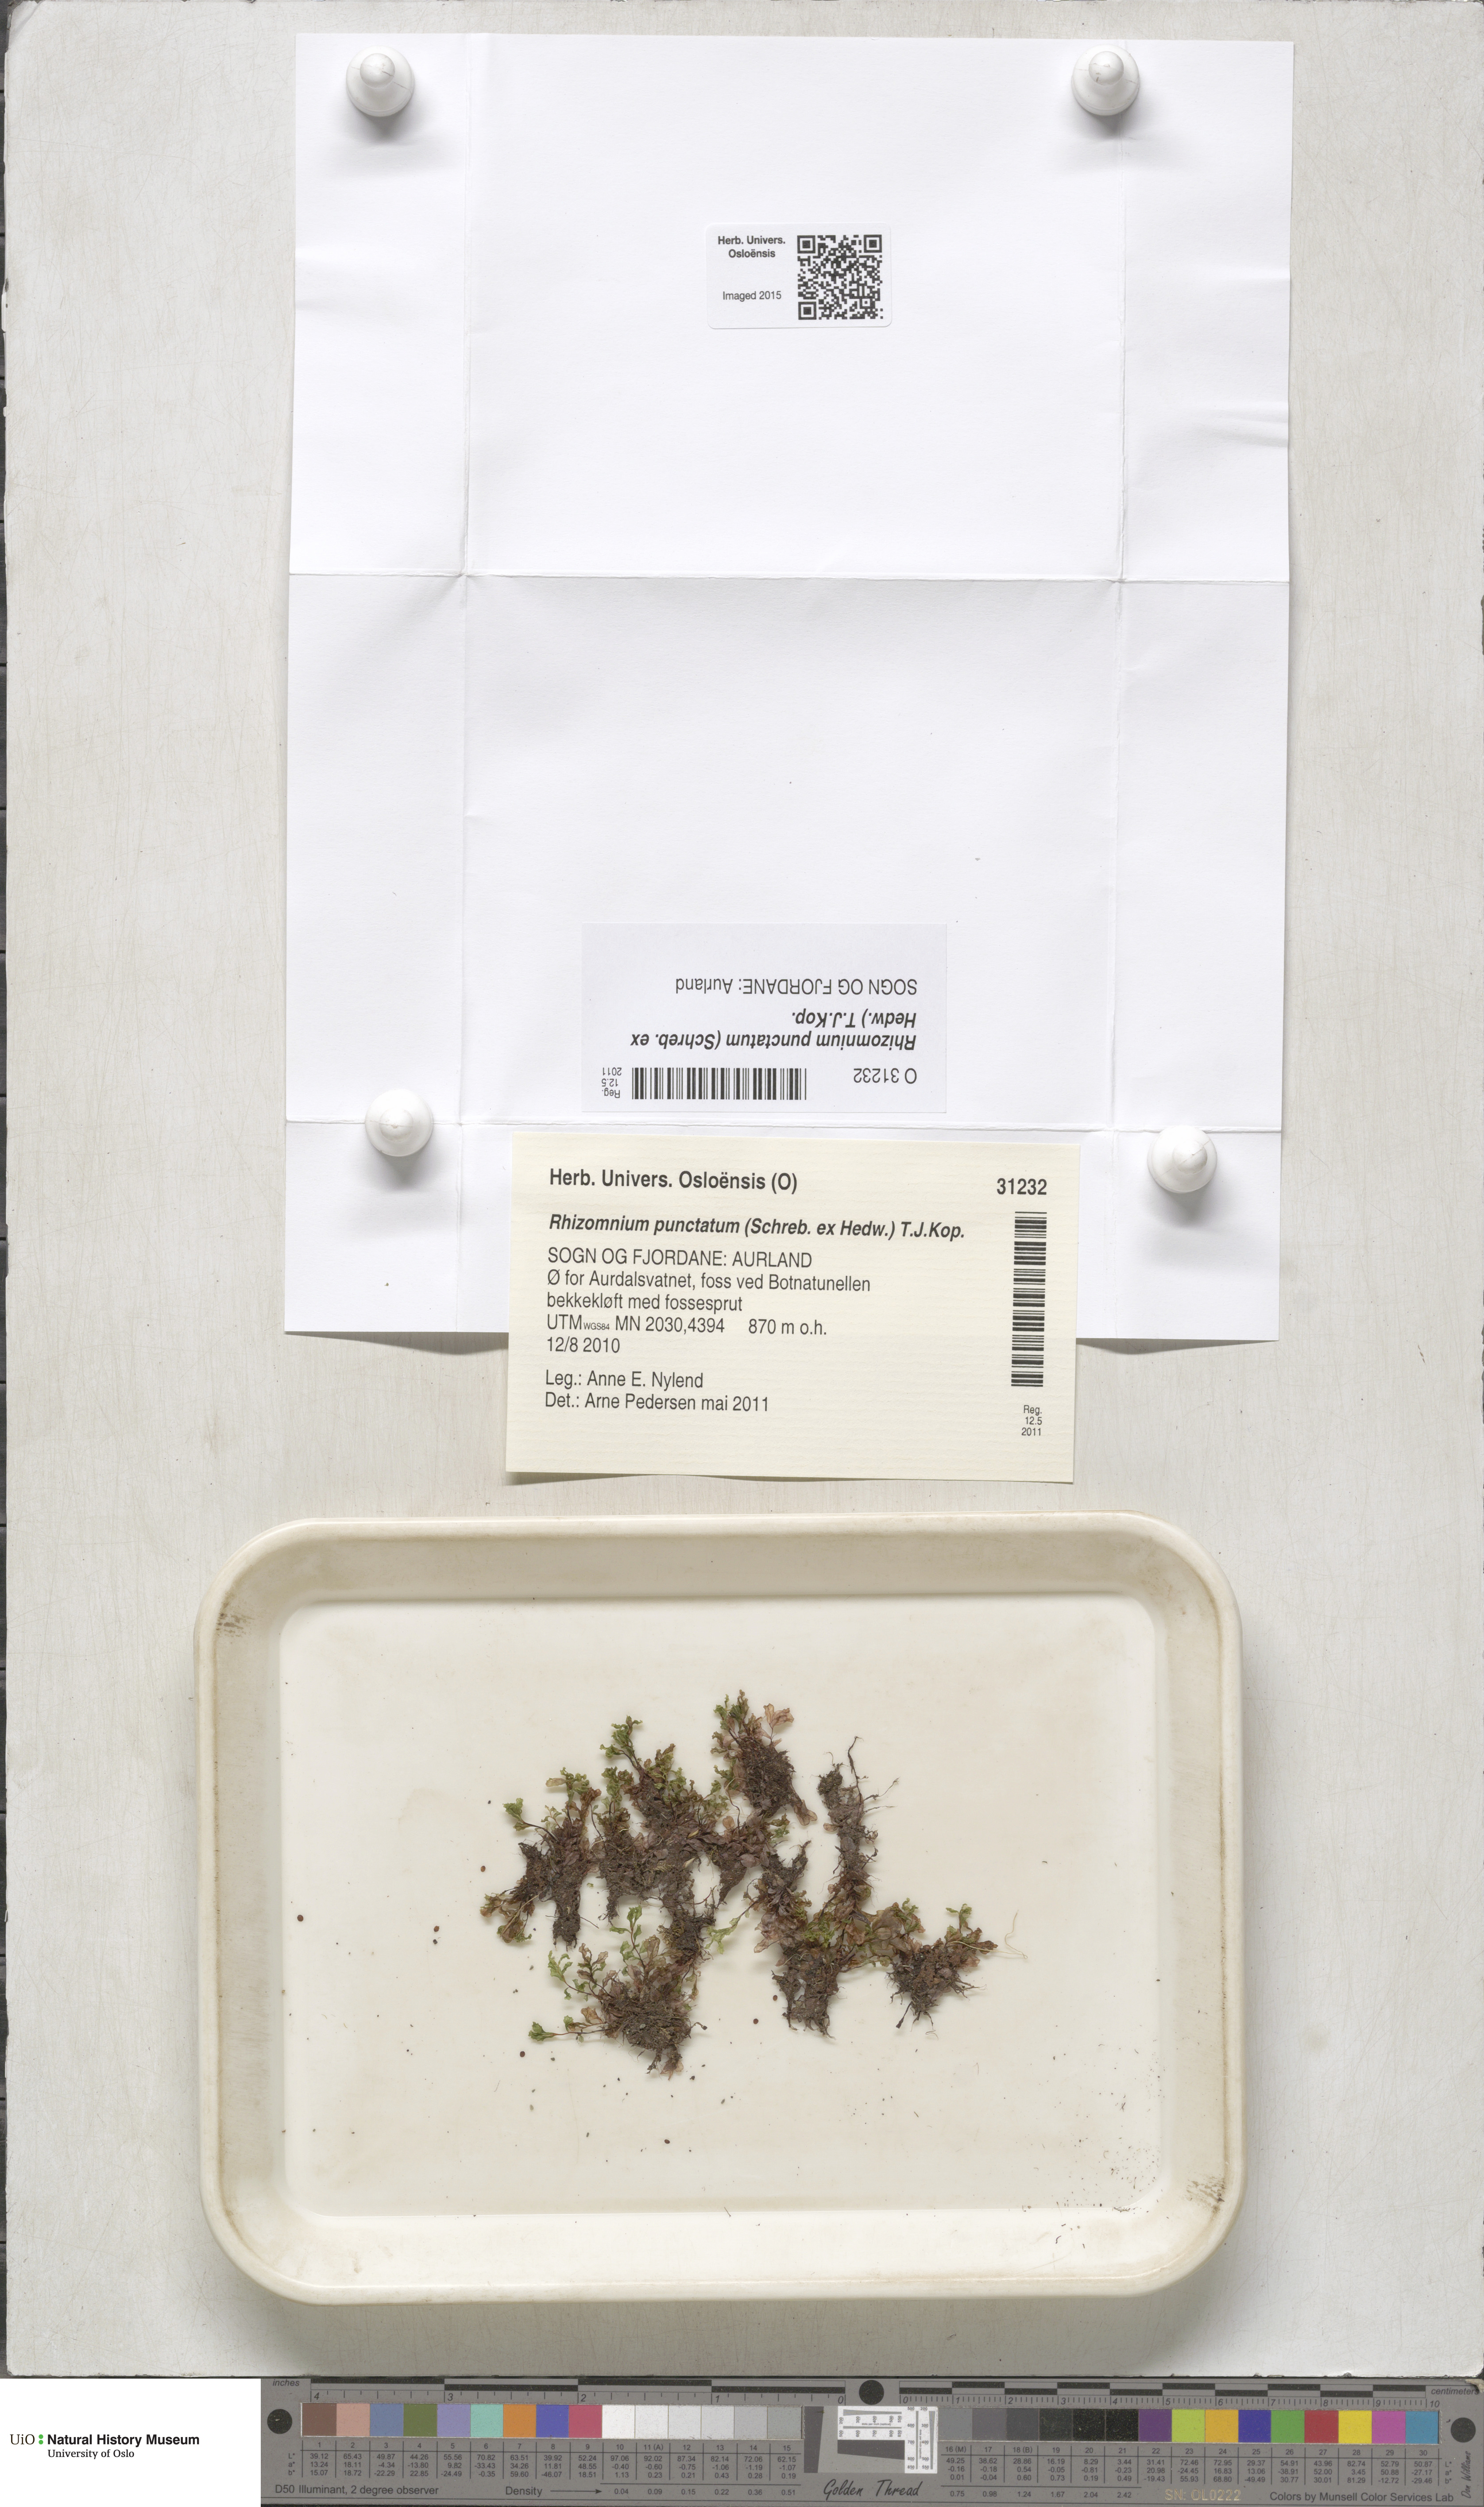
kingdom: Plantae
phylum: Bryophyta
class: Bryopsida
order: Bryales
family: Mniaceae
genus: Rhizomnium
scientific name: Rhizomnium punctatum
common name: Dotted leafy moss
